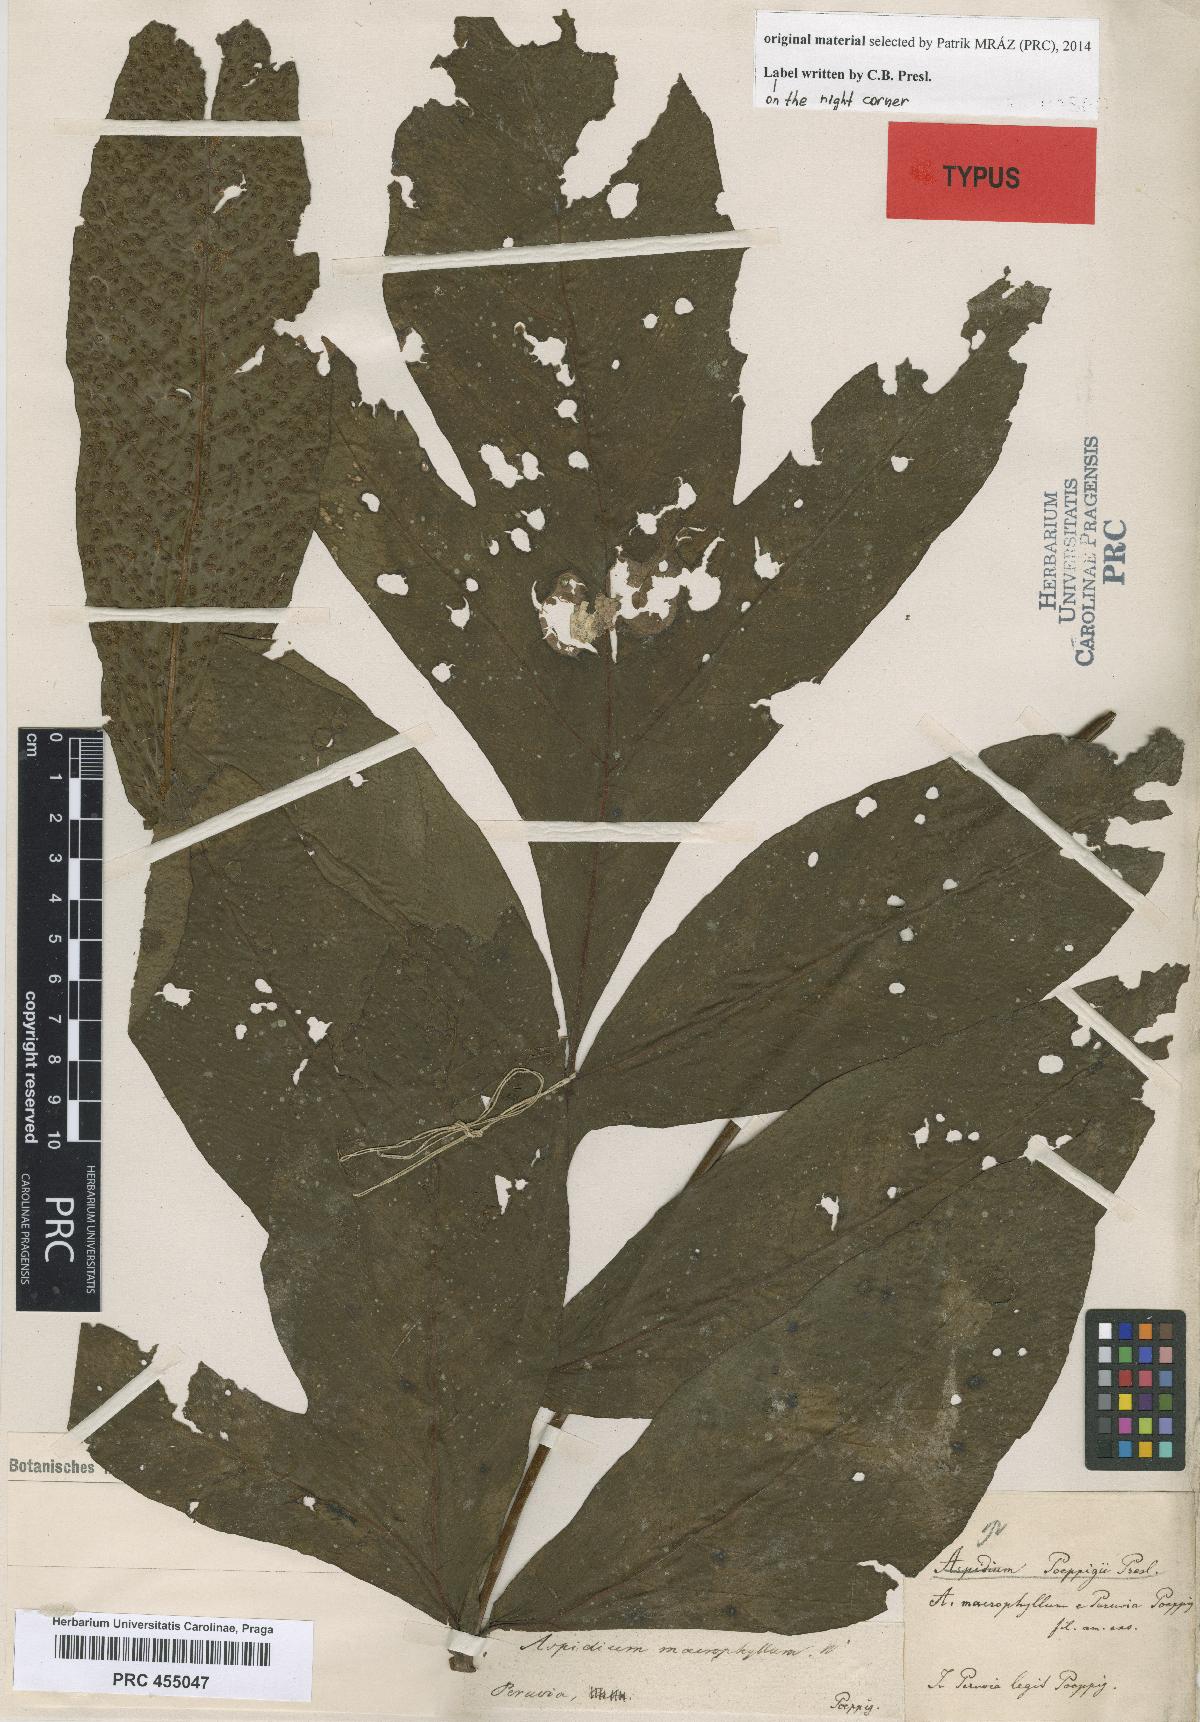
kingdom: Plantae
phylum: Tracheophyta
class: Polypodiopsida
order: Polypodiales
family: Tectariaceae
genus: Tectaria
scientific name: Tectaria poeppigii
